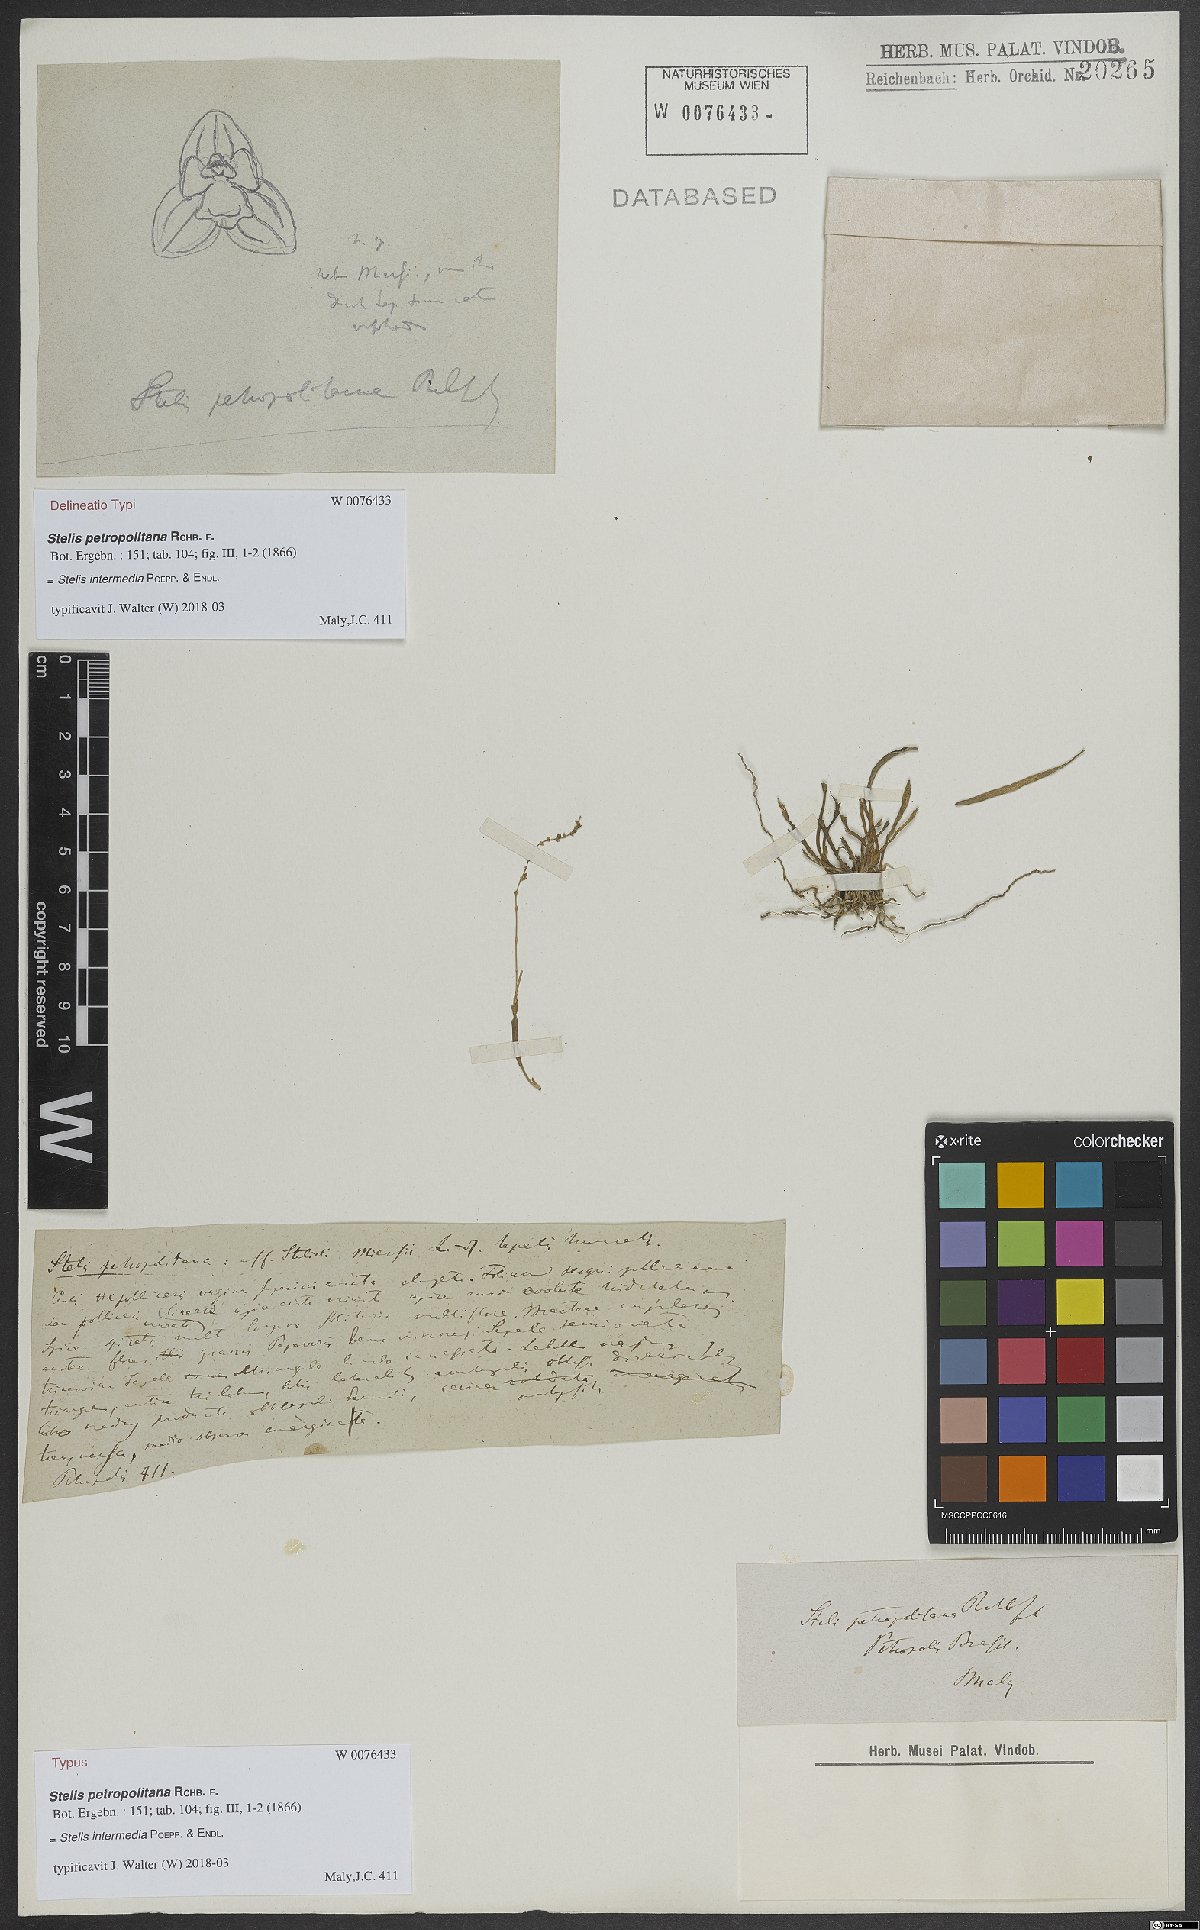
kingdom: Plantae
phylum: Tracheophyta
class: Liliopsida
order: Asparagales
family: Orchidaceae
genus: Stelis
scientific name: Stelis intermedia
